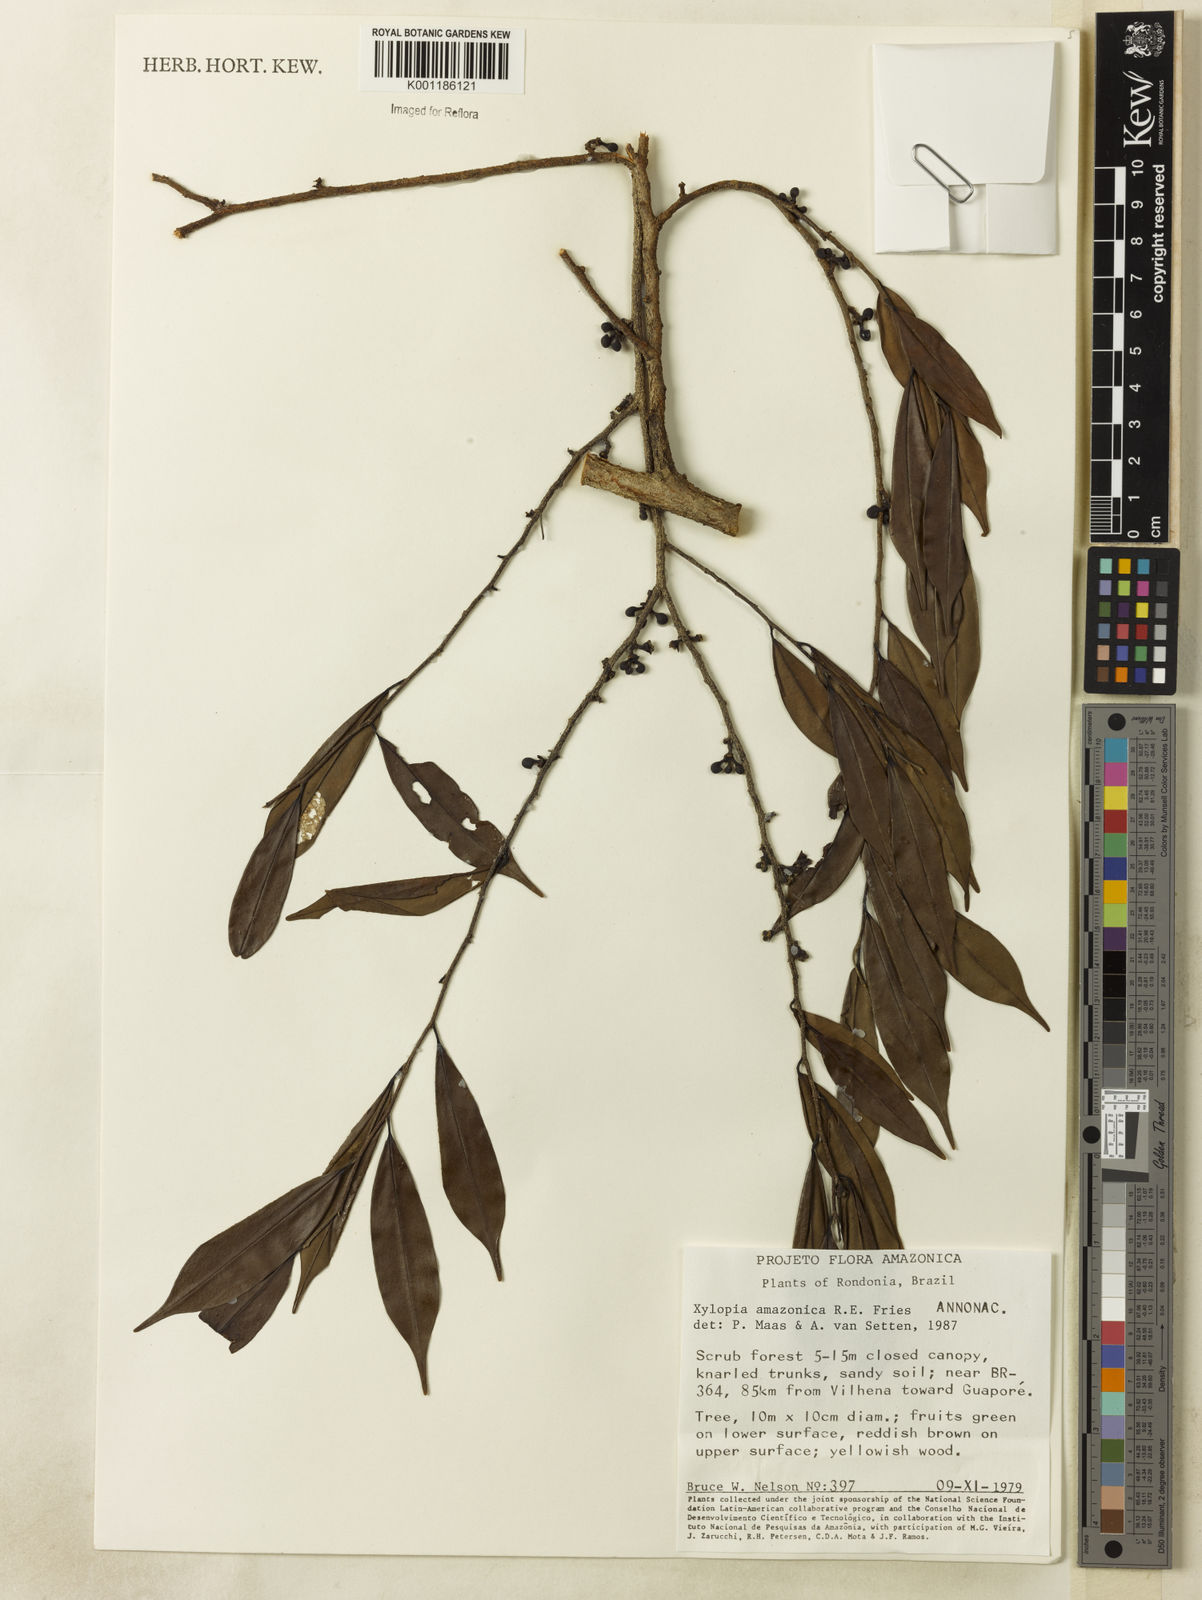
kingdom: Plantae
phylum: Tracheophyta
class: Magnoliopsida
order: Magnoliales
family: Annonaceae
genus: Xylopia
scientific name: Xylopia amazonica
